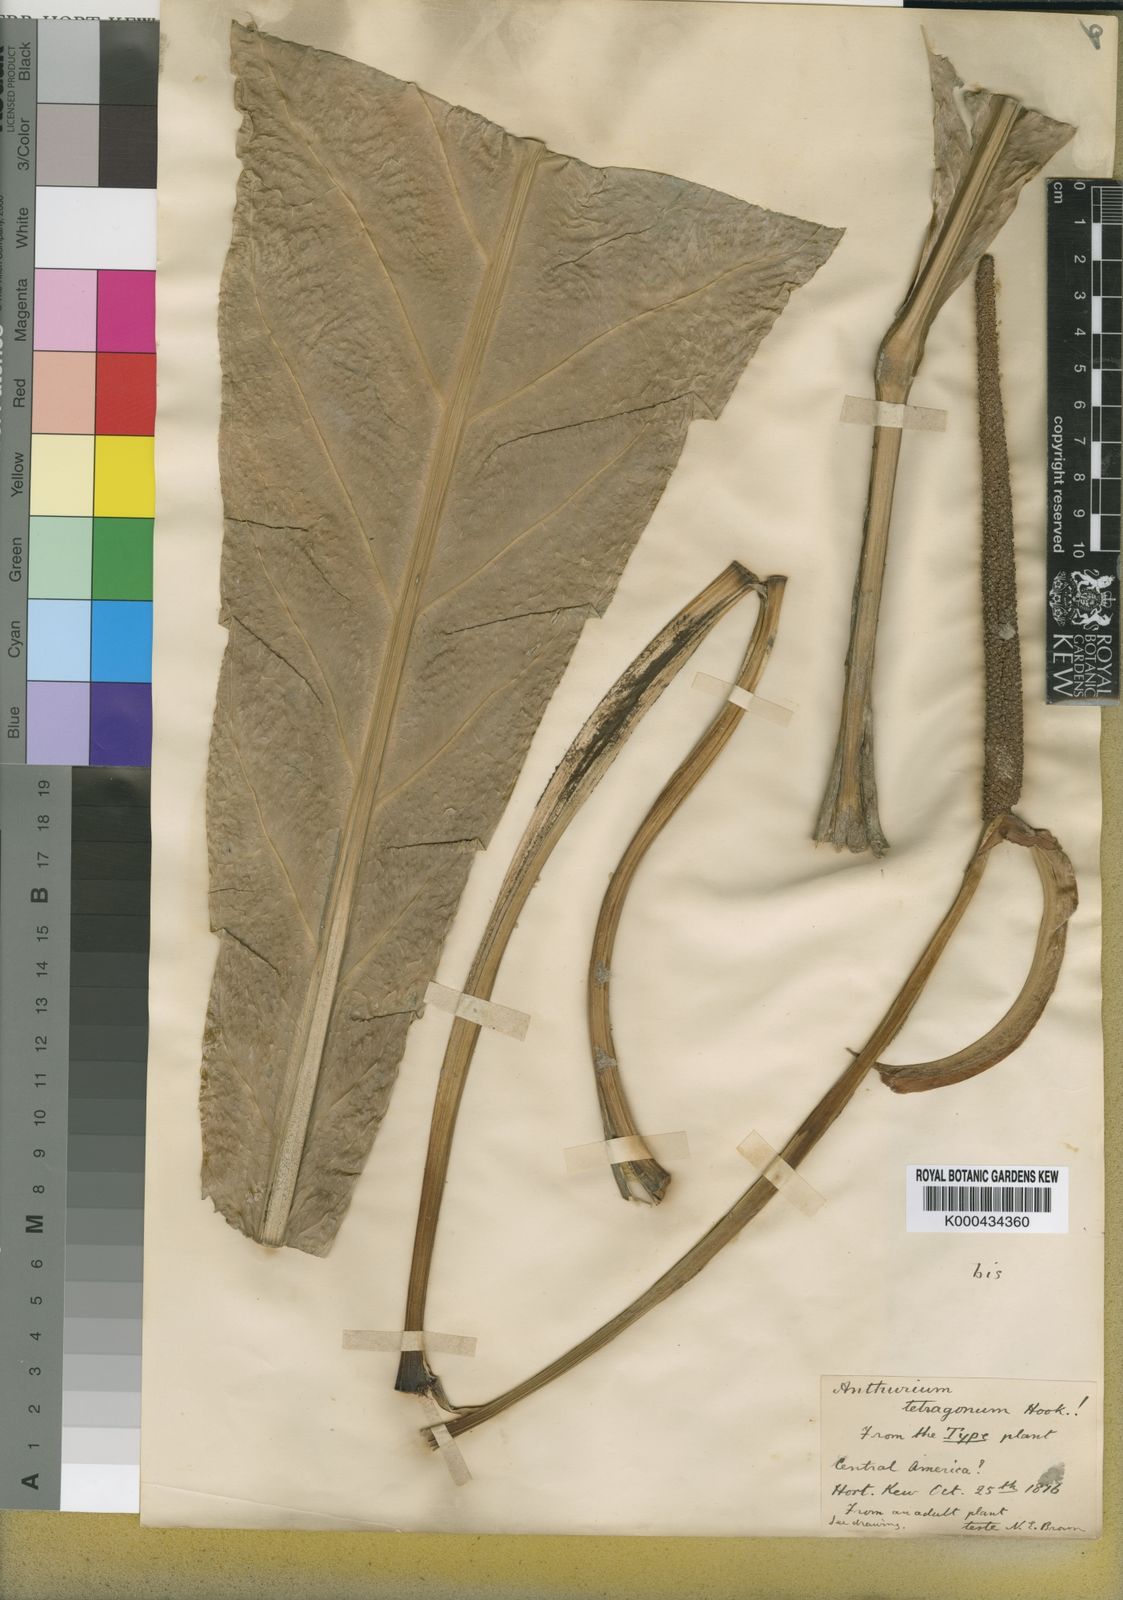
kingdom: Plantae
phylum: Tracheophyta
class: Liliopsida
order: Alismatales
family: Araceae
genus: Anthurium
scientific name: Anthurium schlechtendalii
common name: Laceleaf
